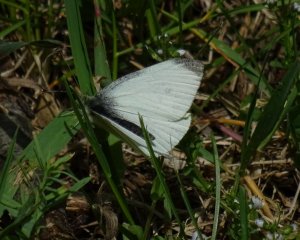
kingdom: Animalia
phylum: Arthropoda
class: Insecta
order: Lepidoptera
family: Pieridae
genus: Pieris
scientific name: Pieris rapae
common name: Cabbage White
